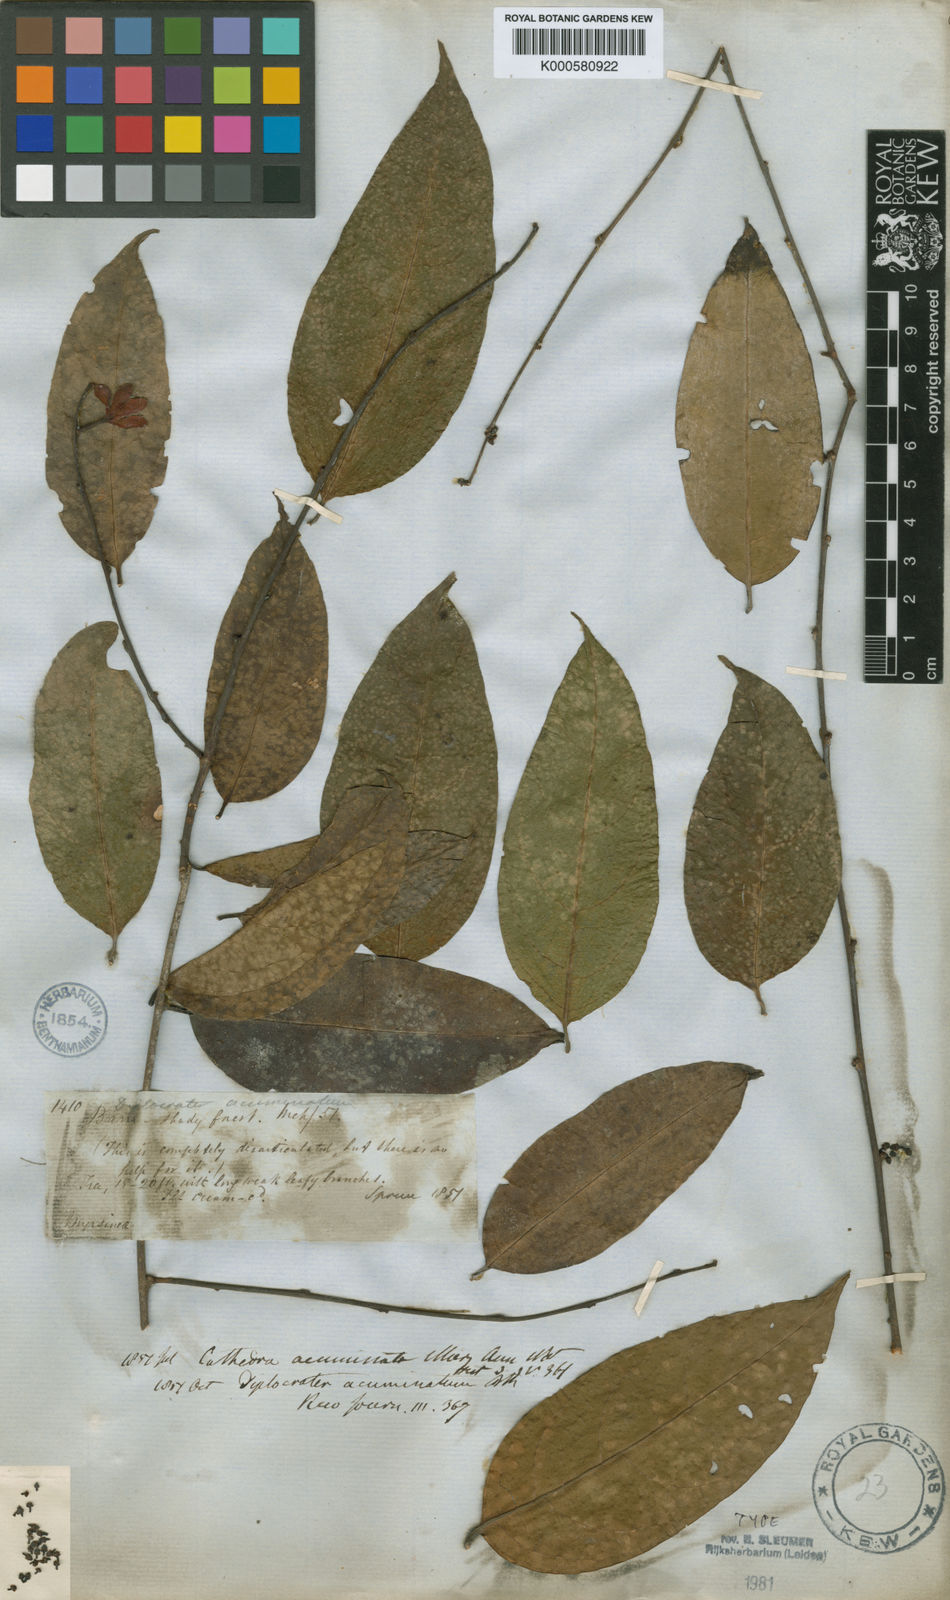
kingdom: Plantae
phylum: Tracheophyta
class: Magnoliopsida
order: Santalales
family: Aptandraceae
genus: Cathedra
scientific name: Cathedra acuminata
